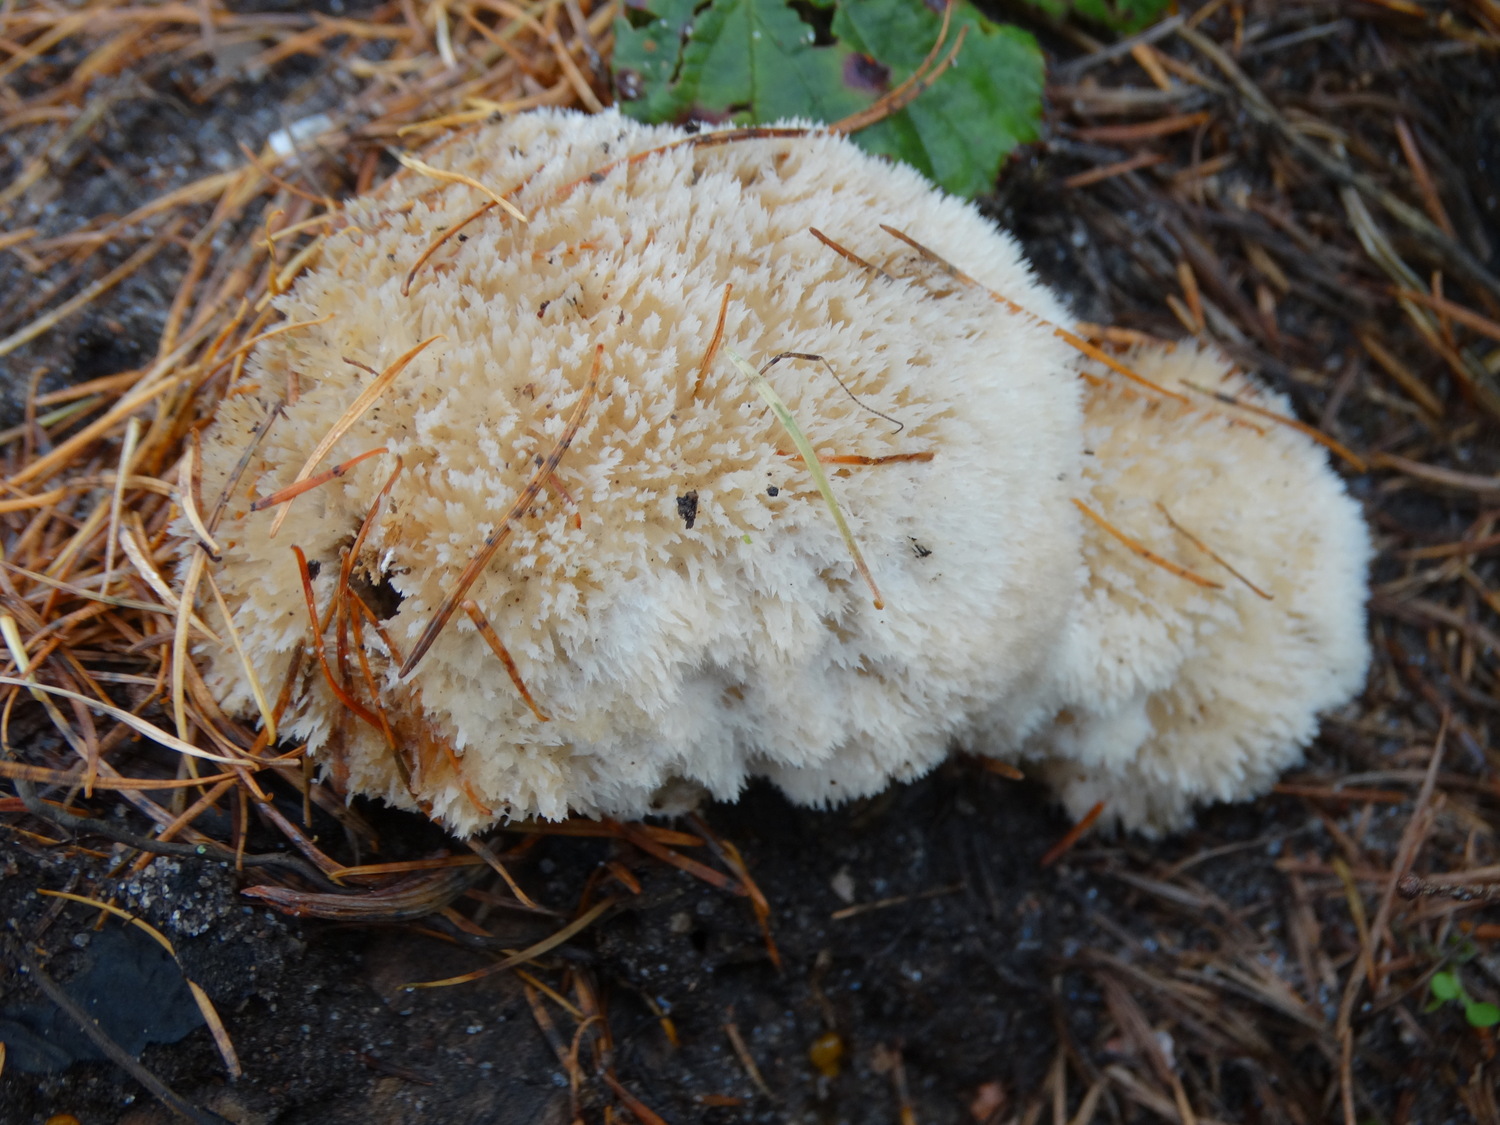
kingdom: Fungi
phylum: Basidiomycota
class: Agaricomycetes
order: Polyporales
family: Dacryobolaceae
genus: Postia
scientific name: Postia ptychogaster
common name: støvende kødporesvamp
